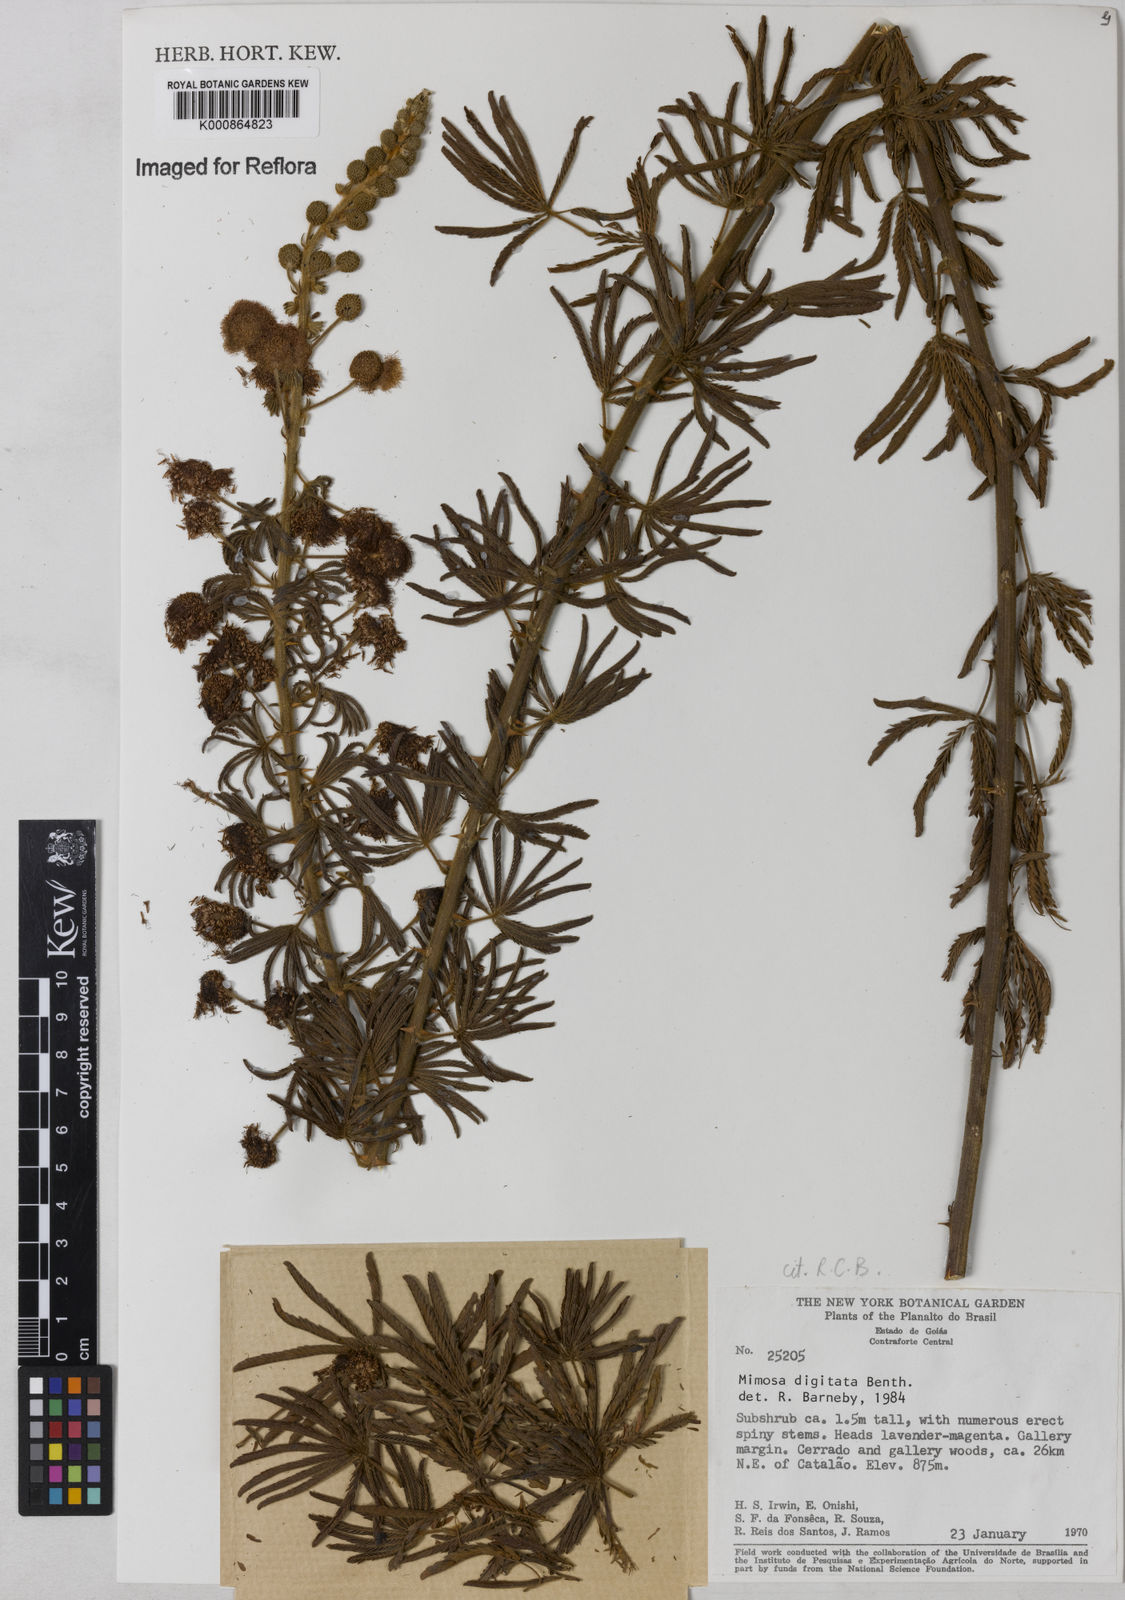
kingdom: Plantae
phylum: Tracheophyta
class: Magnoliopsida
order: Fabales
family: Fabaceae
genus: Mimosa
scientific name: Mimosa digitata
